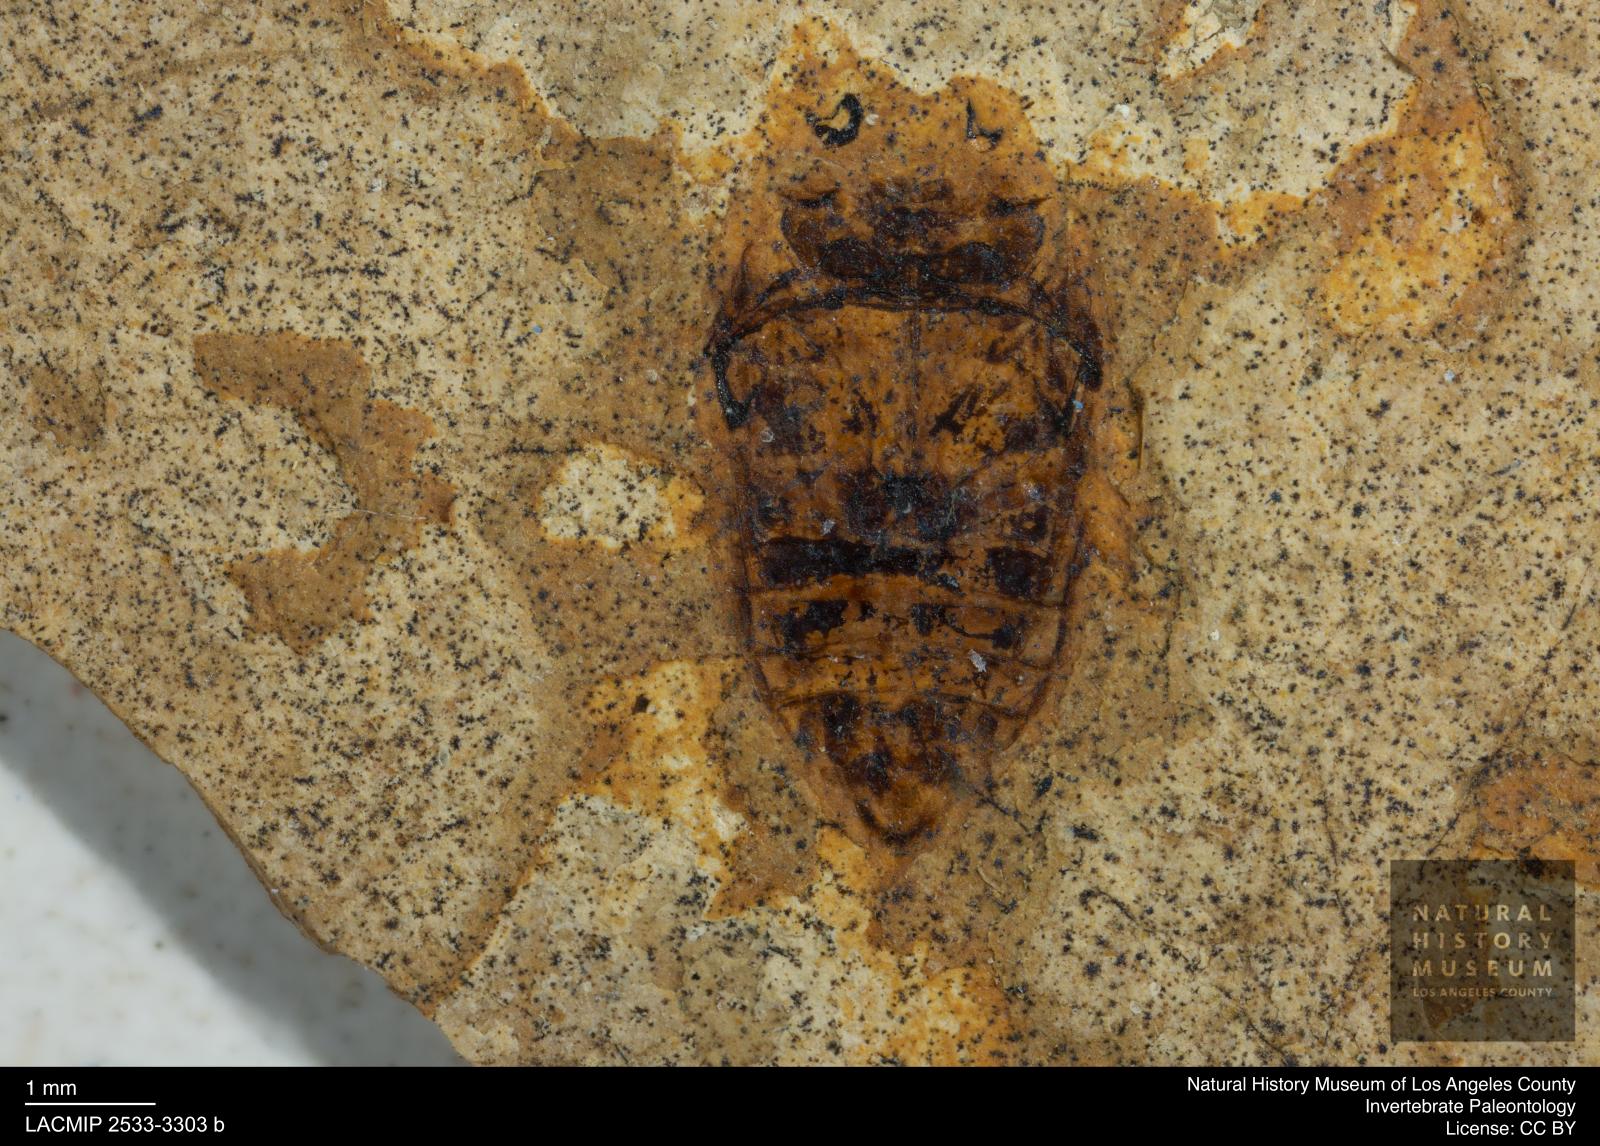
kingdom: Animalia
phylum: Arthropoda
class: Insecta
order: Coleoptera
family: Dytiscidae
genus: Laccophilus
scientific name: Laccophilus Palaeogyrinus strigatus
